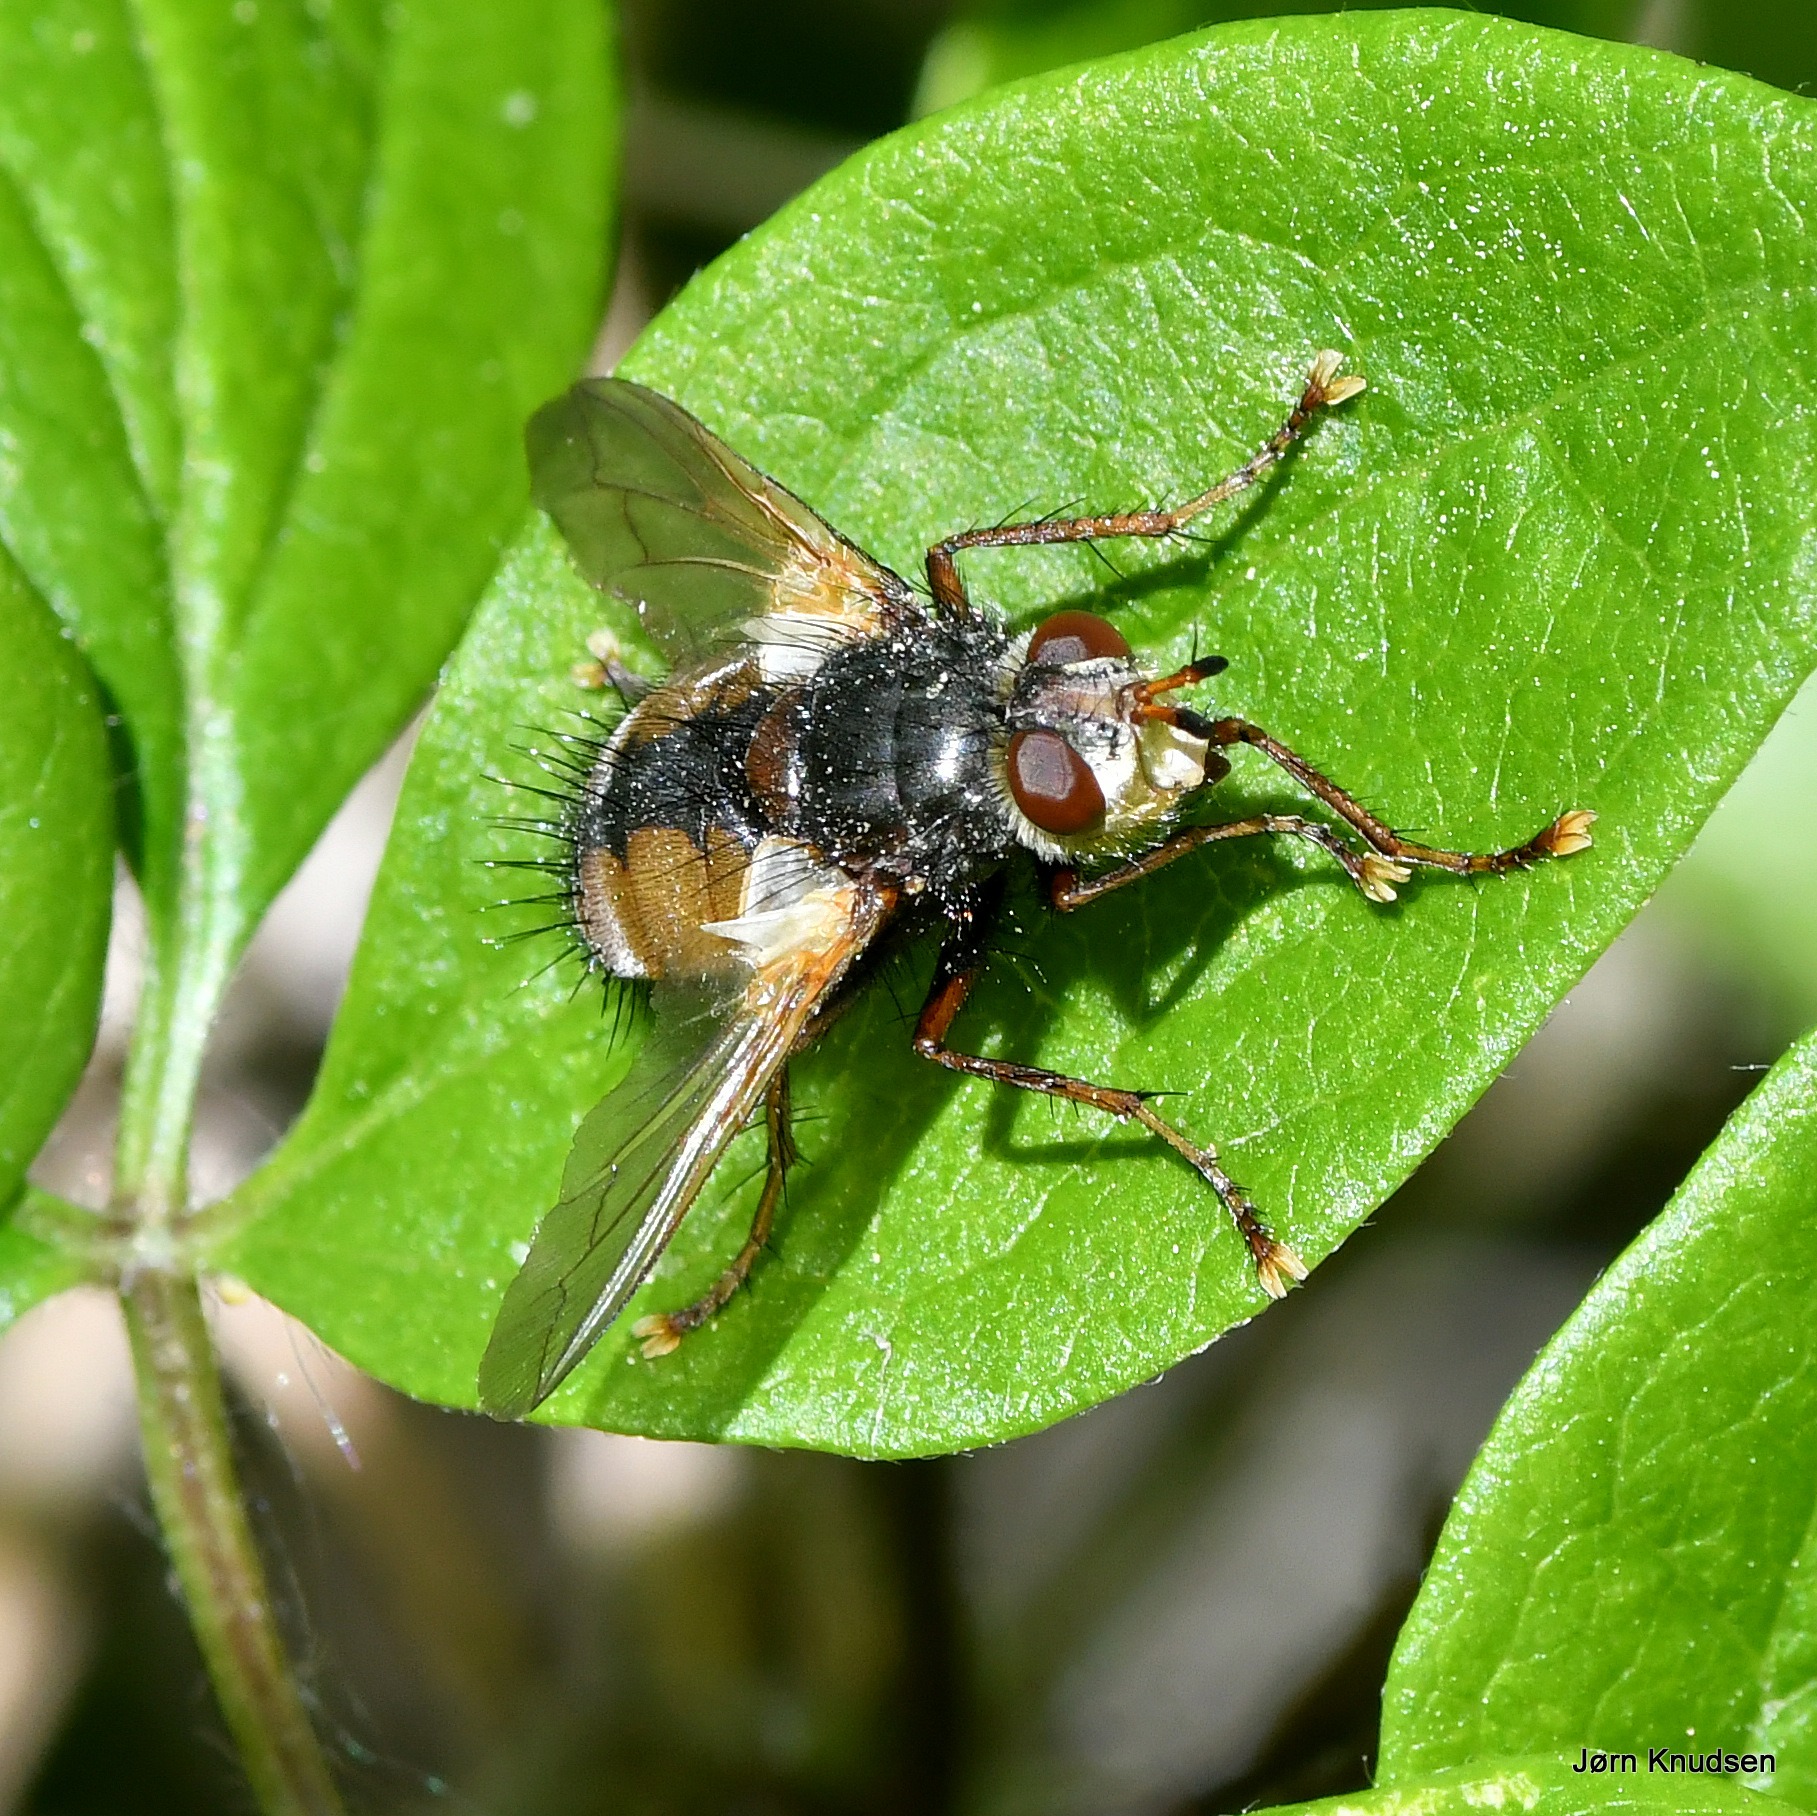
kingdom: Animalia
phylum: Arthropoda
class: Insecta
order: Diptera
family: Tachinidae
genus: Tachina
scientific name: Tachina fera
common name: Mellemfluen oskar
